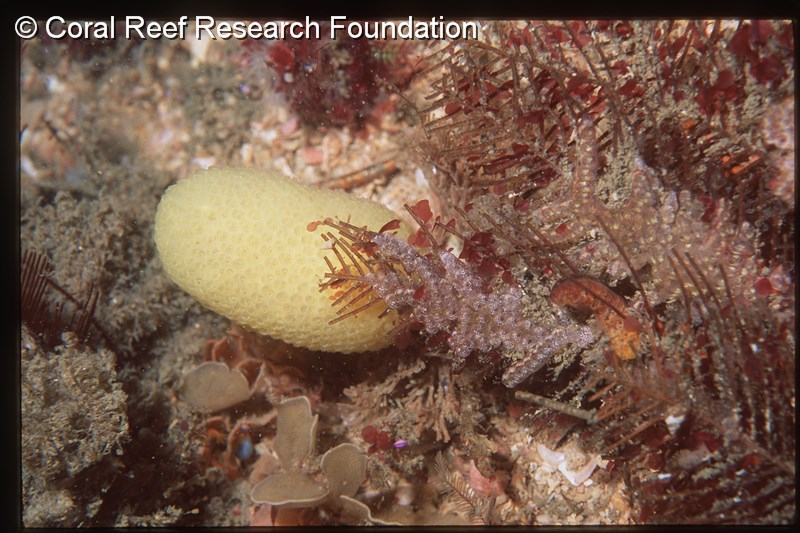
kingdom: Animalia
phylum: Chordata
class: Ascidiacea
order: Aplousobranchia
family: Pseudodistomidae
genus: Pseudodistoma
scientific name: Pseudodistoma
